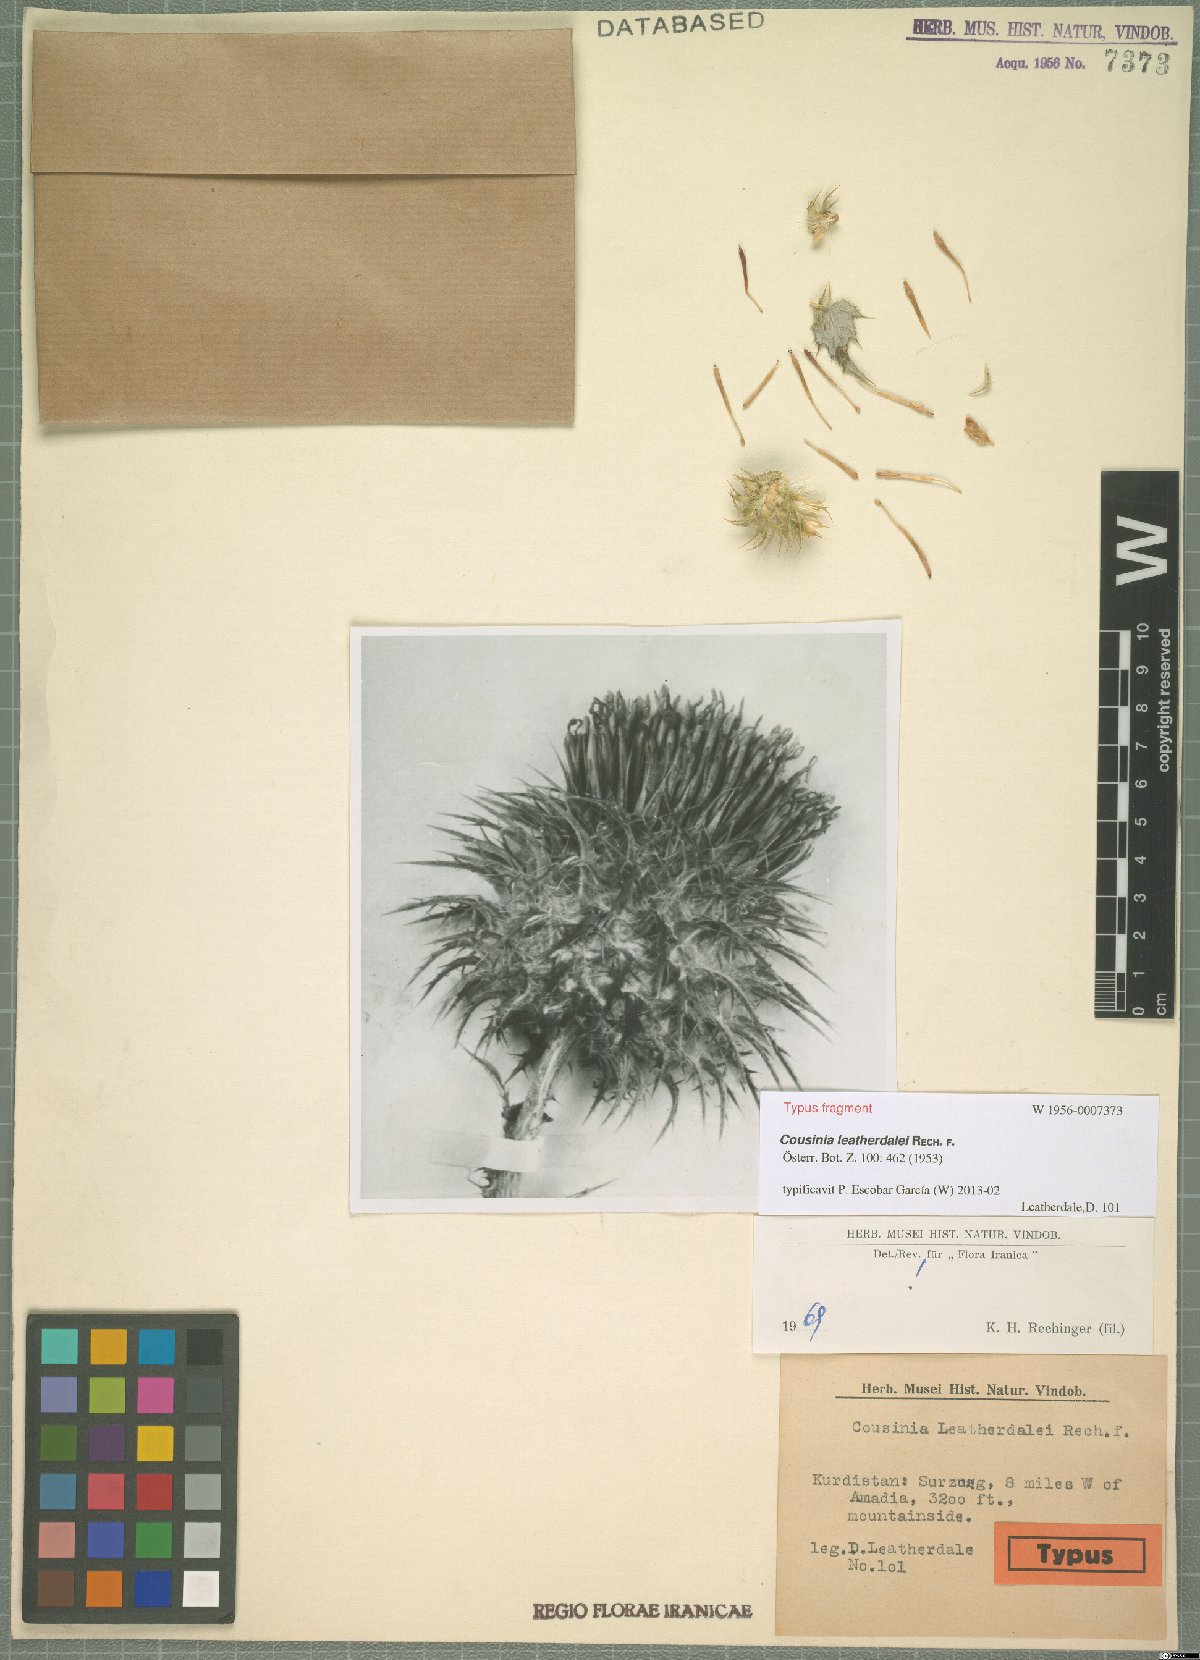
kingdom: Plantae
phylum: Tracheophyta
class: Magnoliopsida
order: Asterales
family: Asteraceae
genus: Cousinia
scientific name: Cousinia odontolepis
